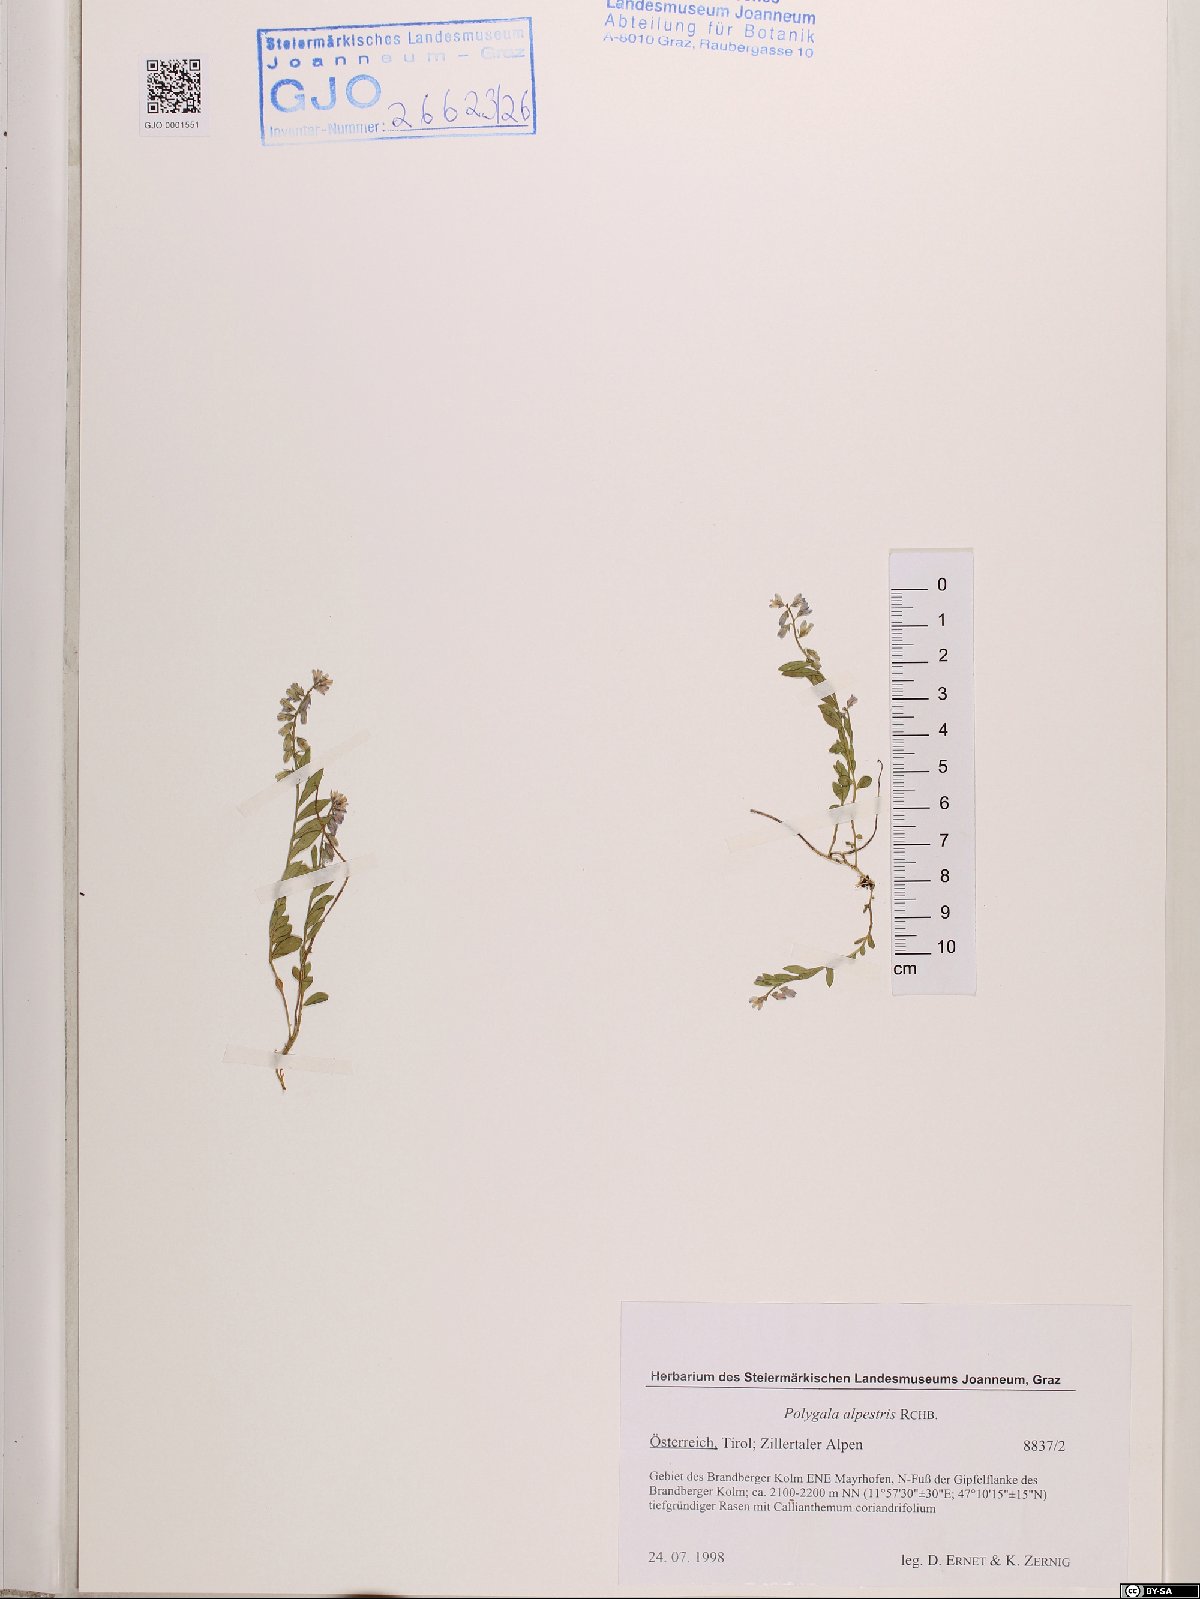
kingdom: Plantae
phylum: Tracheophyta
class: Magnoliopsida
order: Fabales
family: Polygalaceae
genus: Polygala
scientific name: Polygala alpestris
